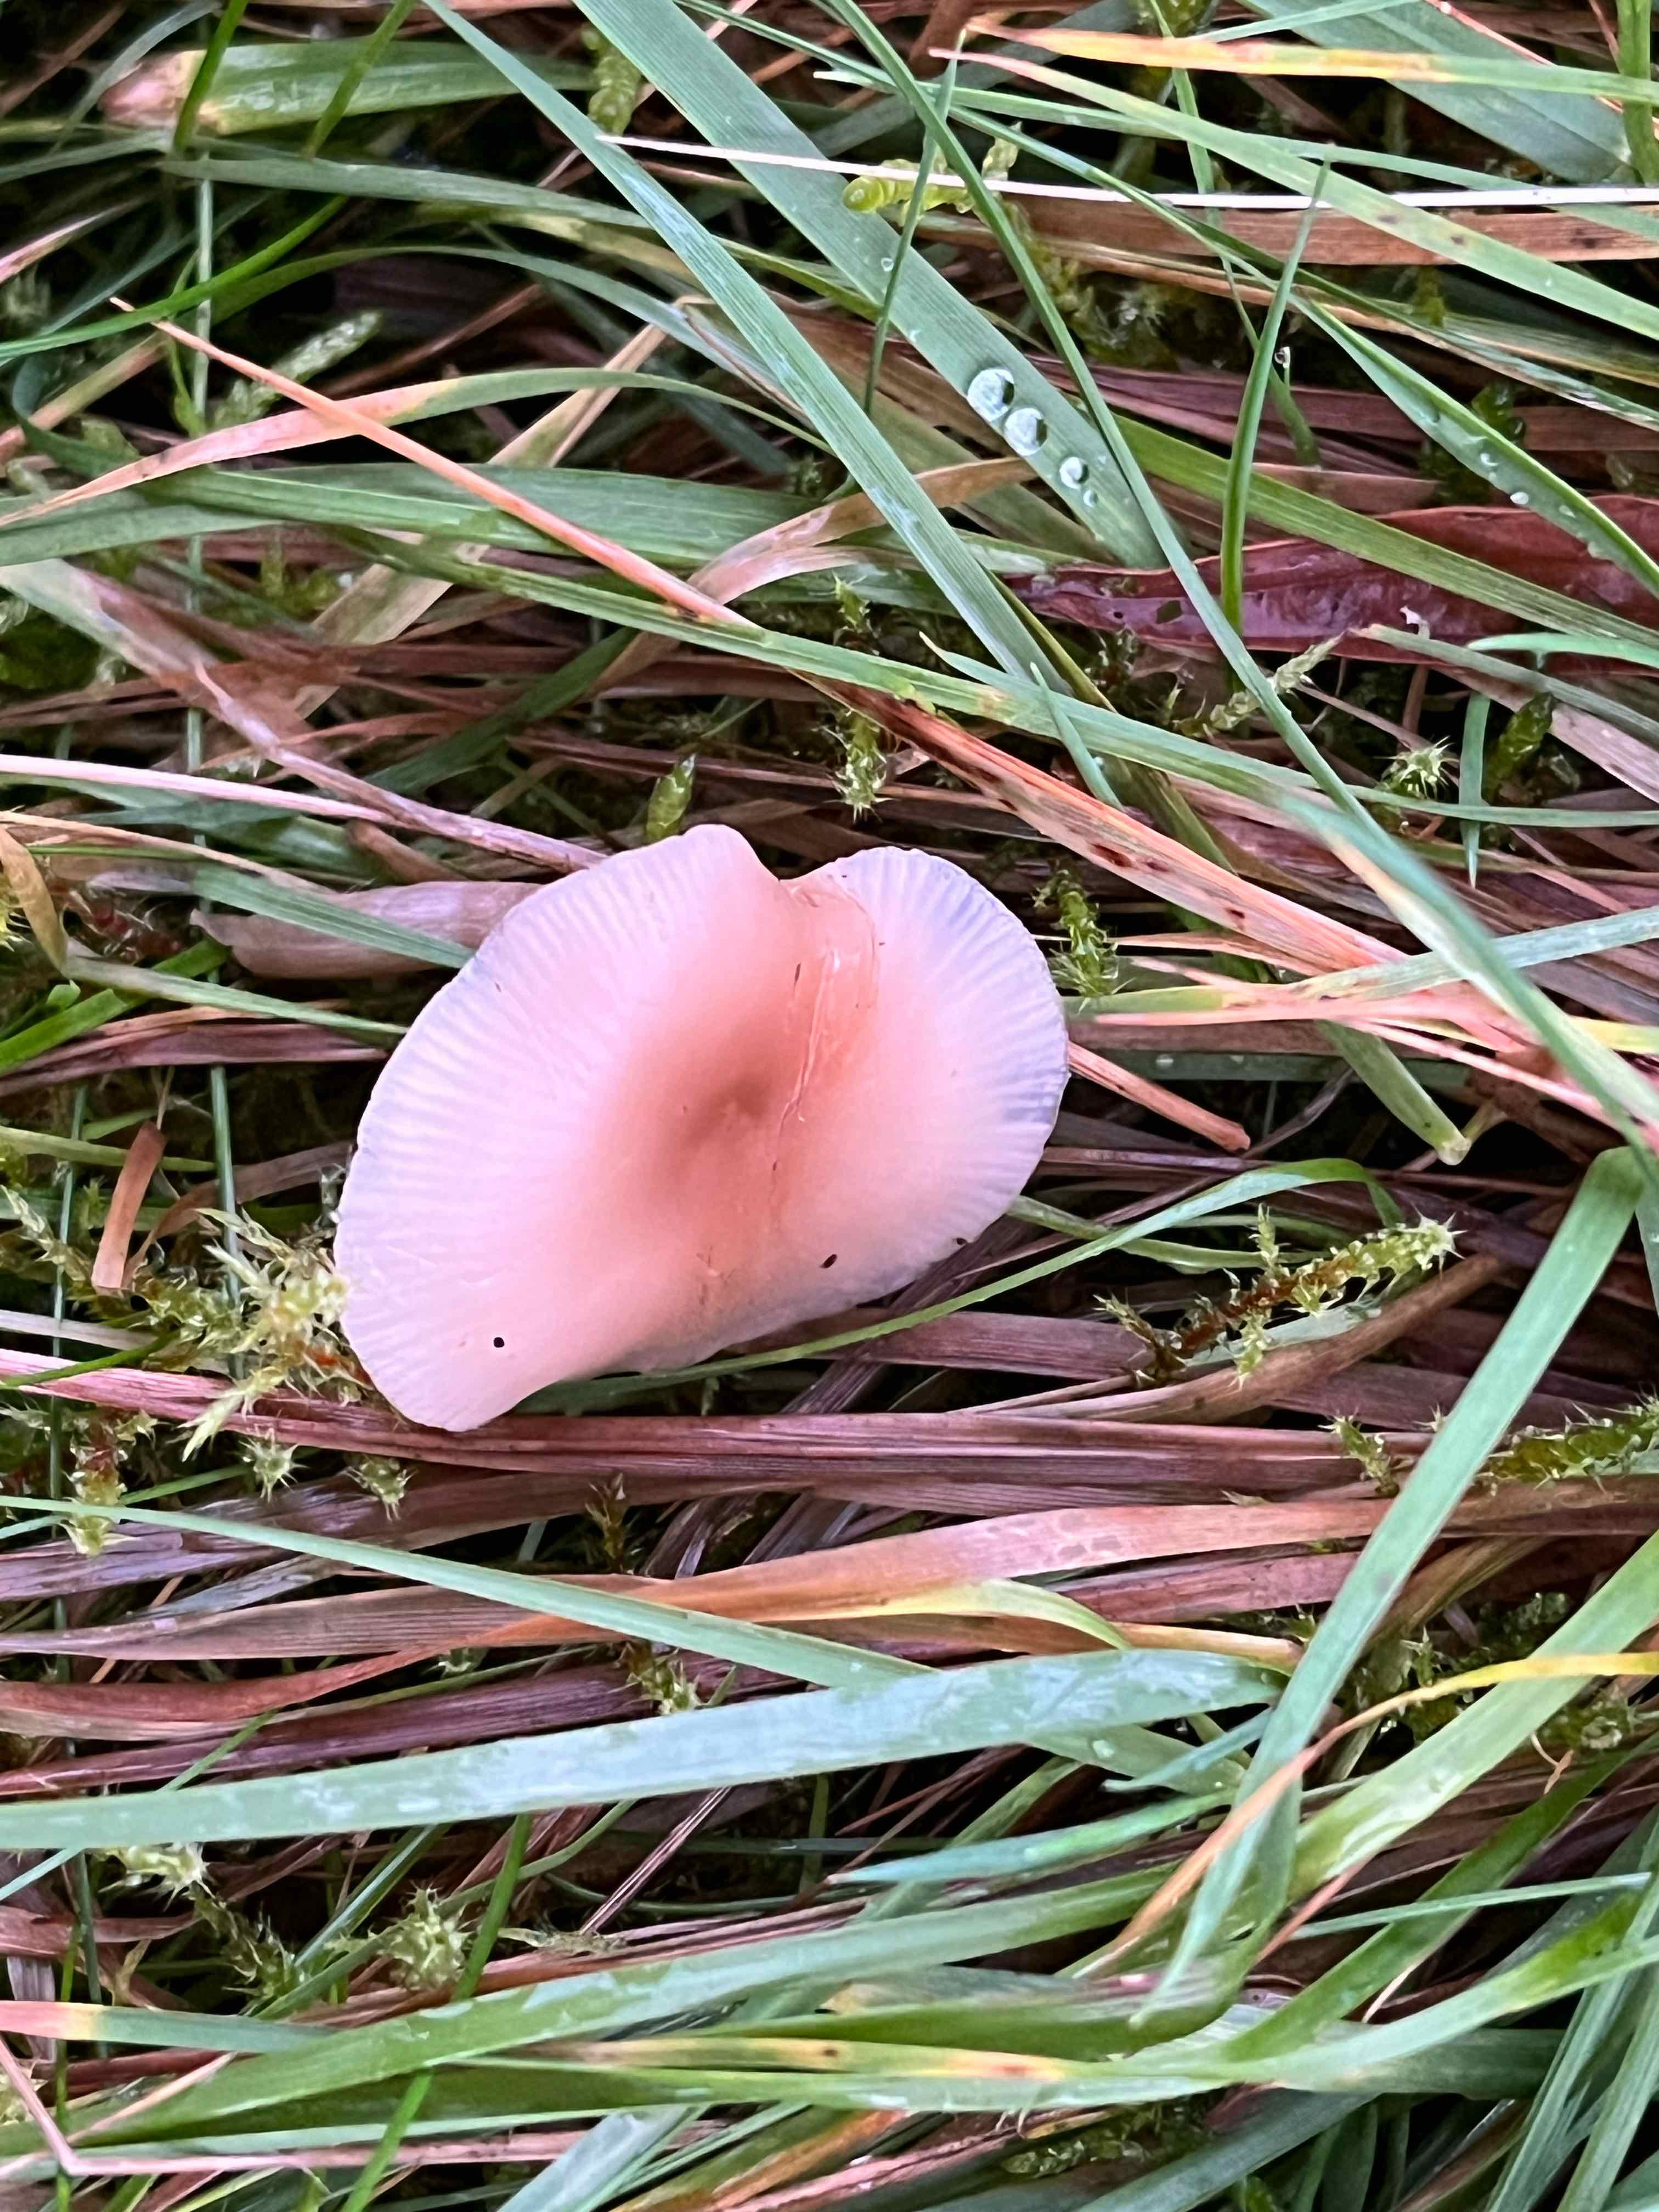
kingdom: Fungi
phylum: Basidiomycota
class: Agaricomycetes
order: Agaricales
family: Tricholomataceae
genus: Clitocybe
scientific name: Clitocybe fragrans
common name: vellugtende tragthat
